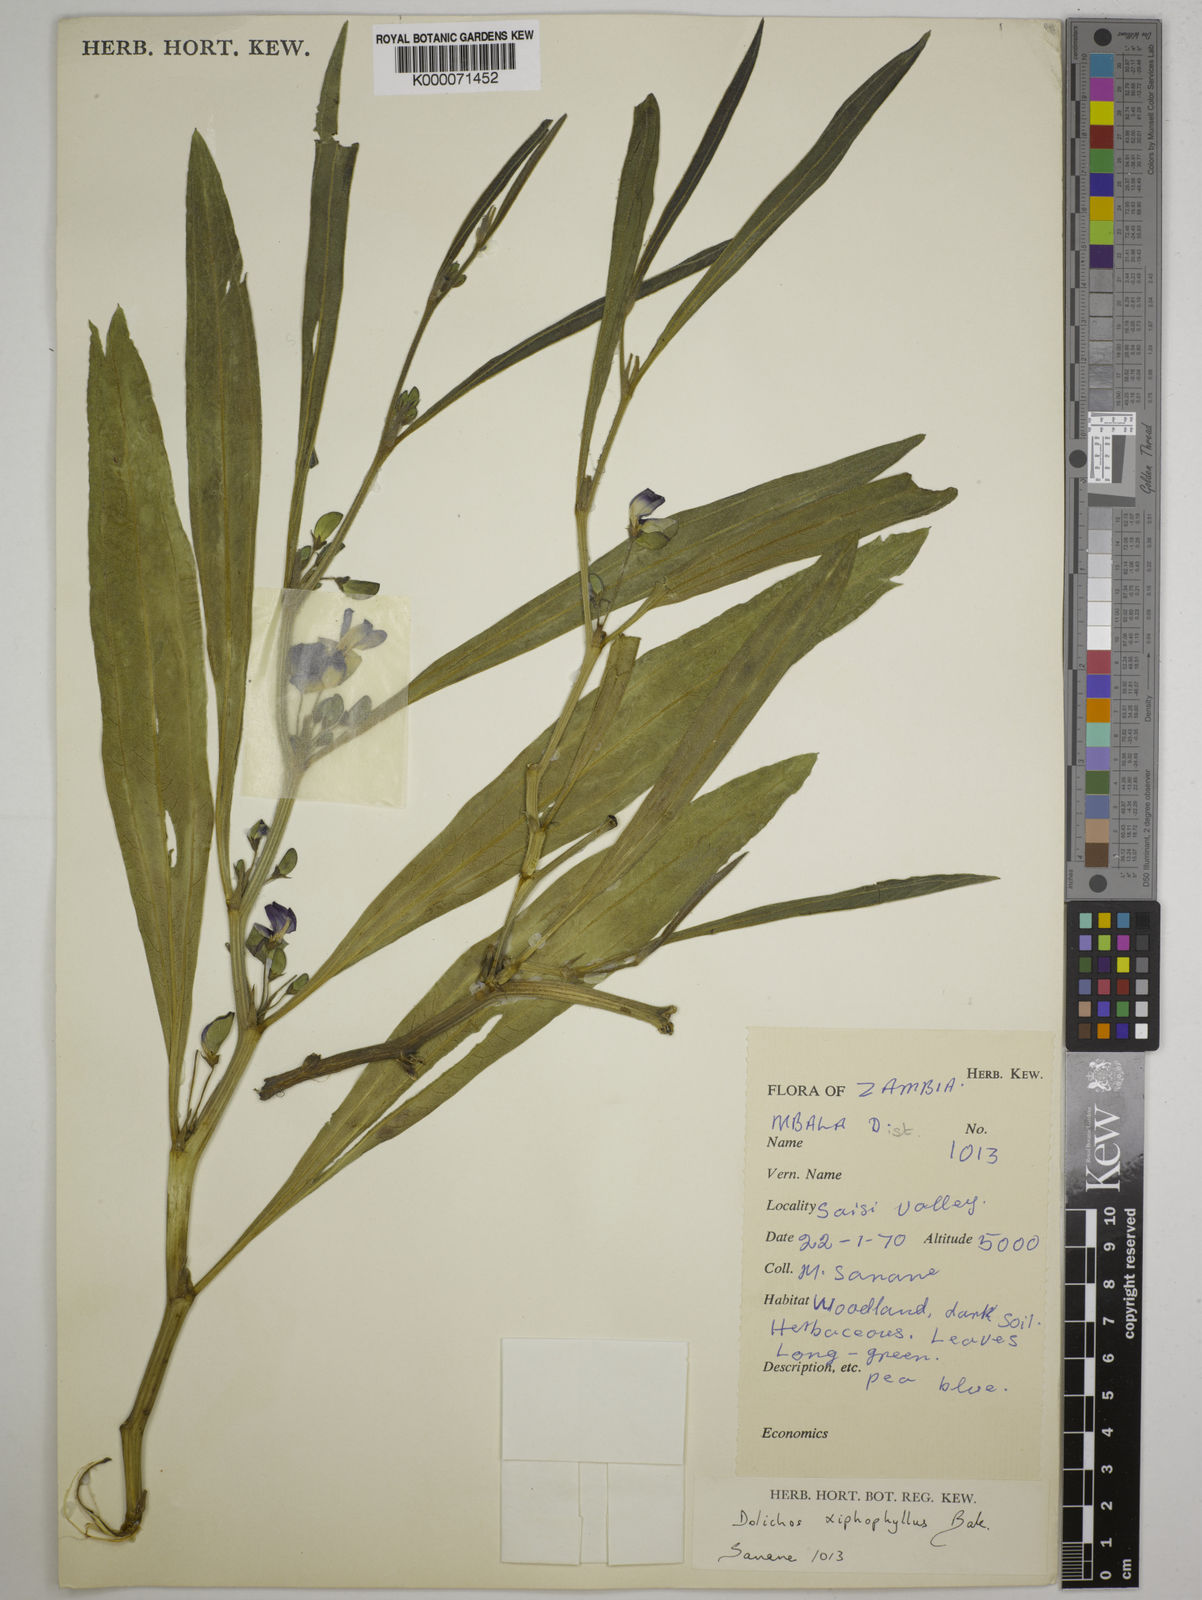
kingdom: Plantae
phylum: Tracheophyta
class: Magnoliopsida
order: Fabales
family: Fabaceae
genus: Dolichos
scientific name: Dolichos xiphophyllus
